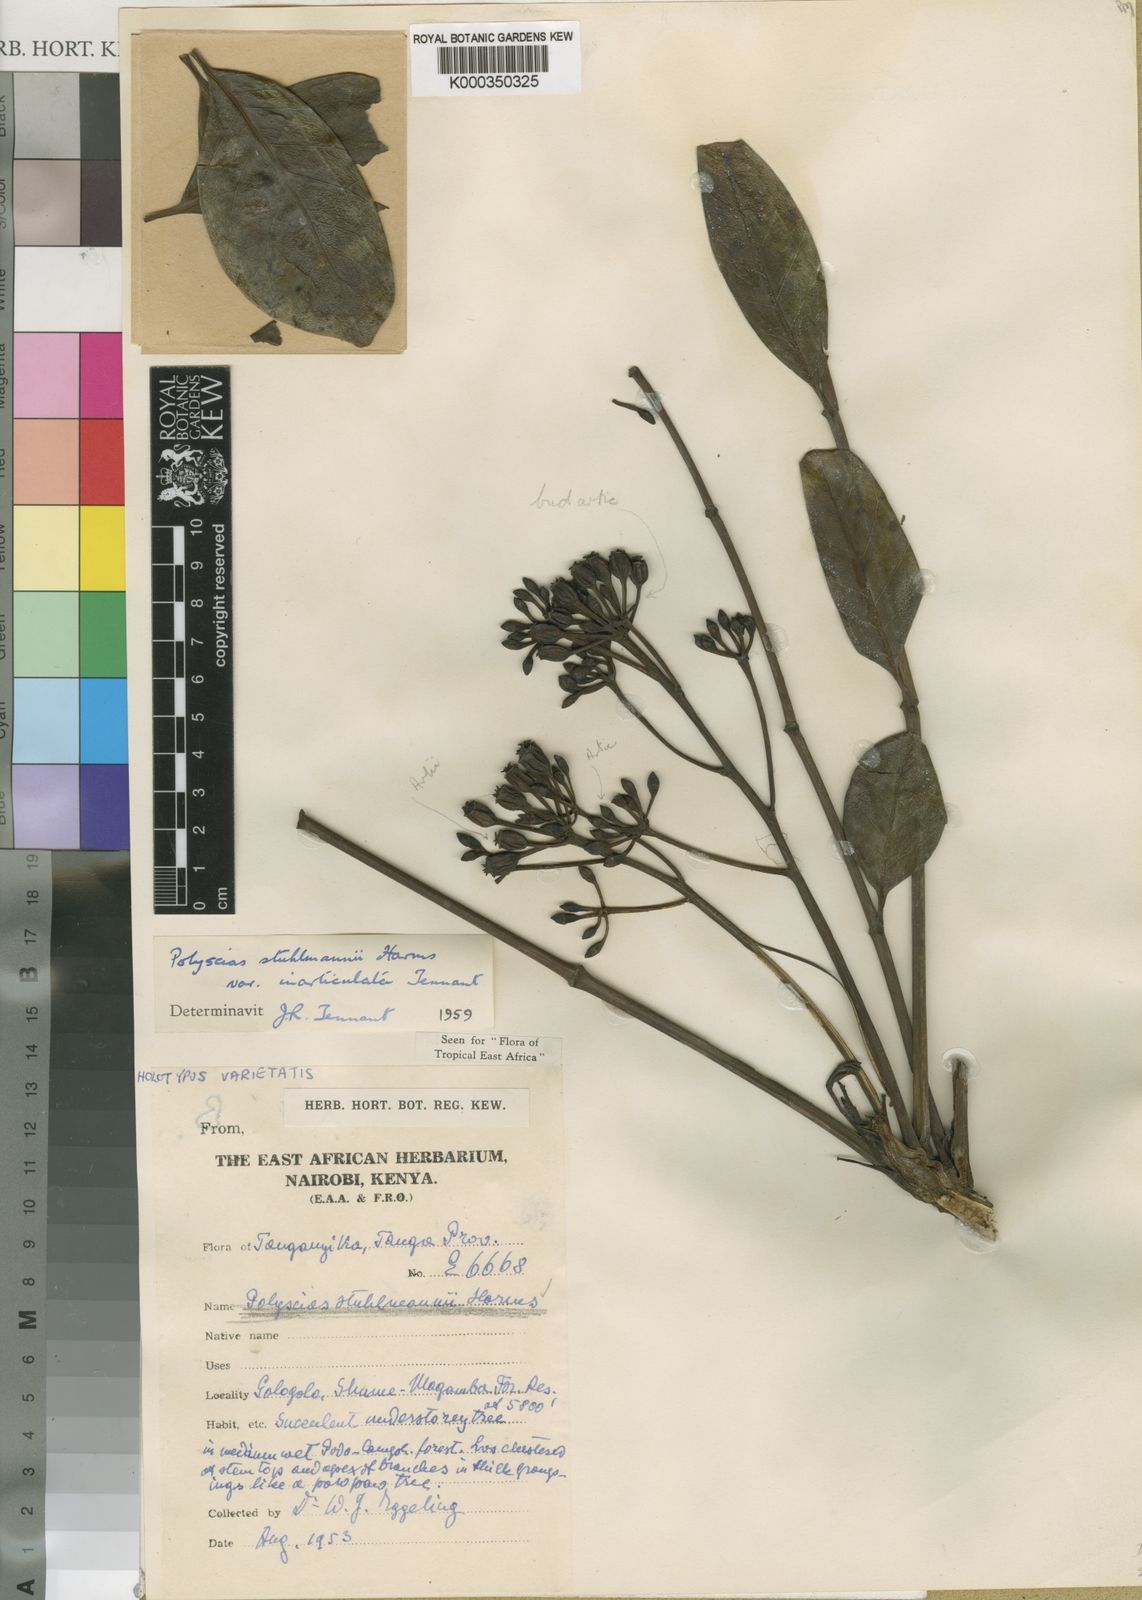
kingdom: Plantae
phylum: Tracheophyta
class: Magnoliopsida
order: Apiales
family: Araliaceae
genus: Polyscias
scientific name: Polyscias stuhlmannii
